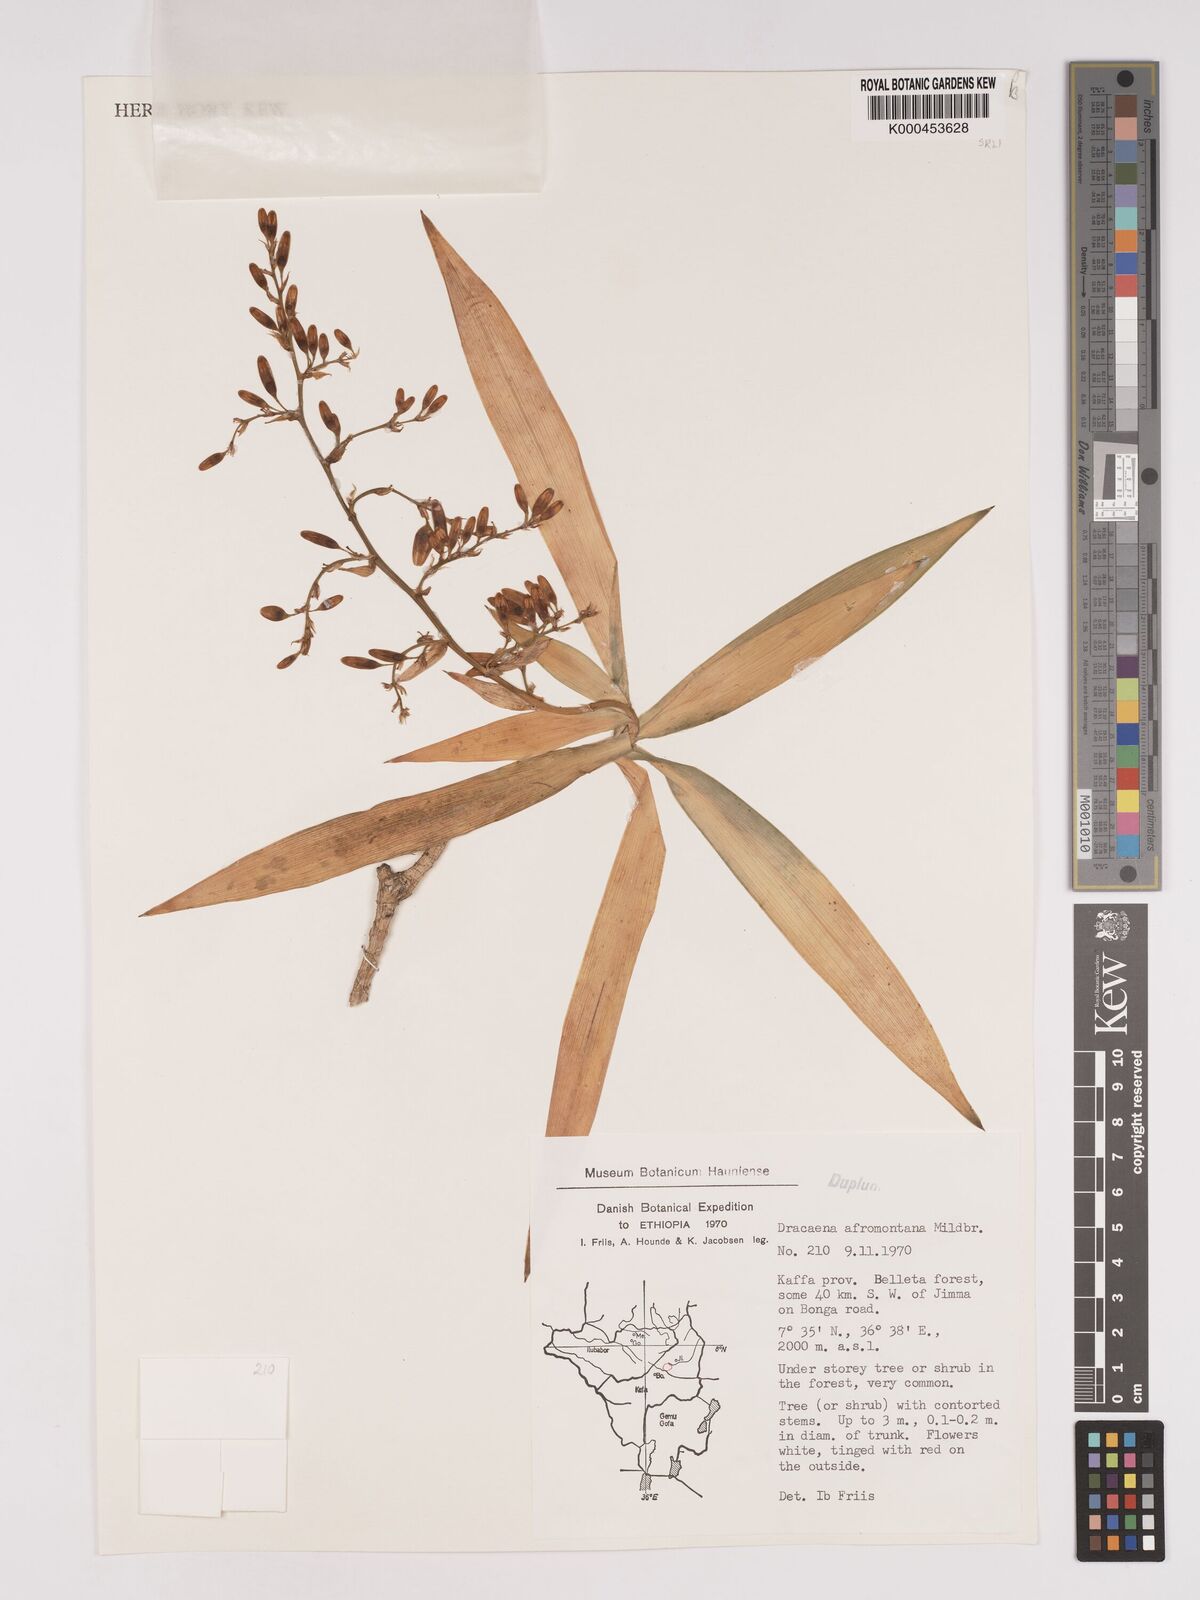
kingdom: Plantae
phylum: Tracheophyta
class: Liliopsida
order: Asparagales
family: Asparagaceae
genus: Dracaena
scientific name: Dracaena afromontana
